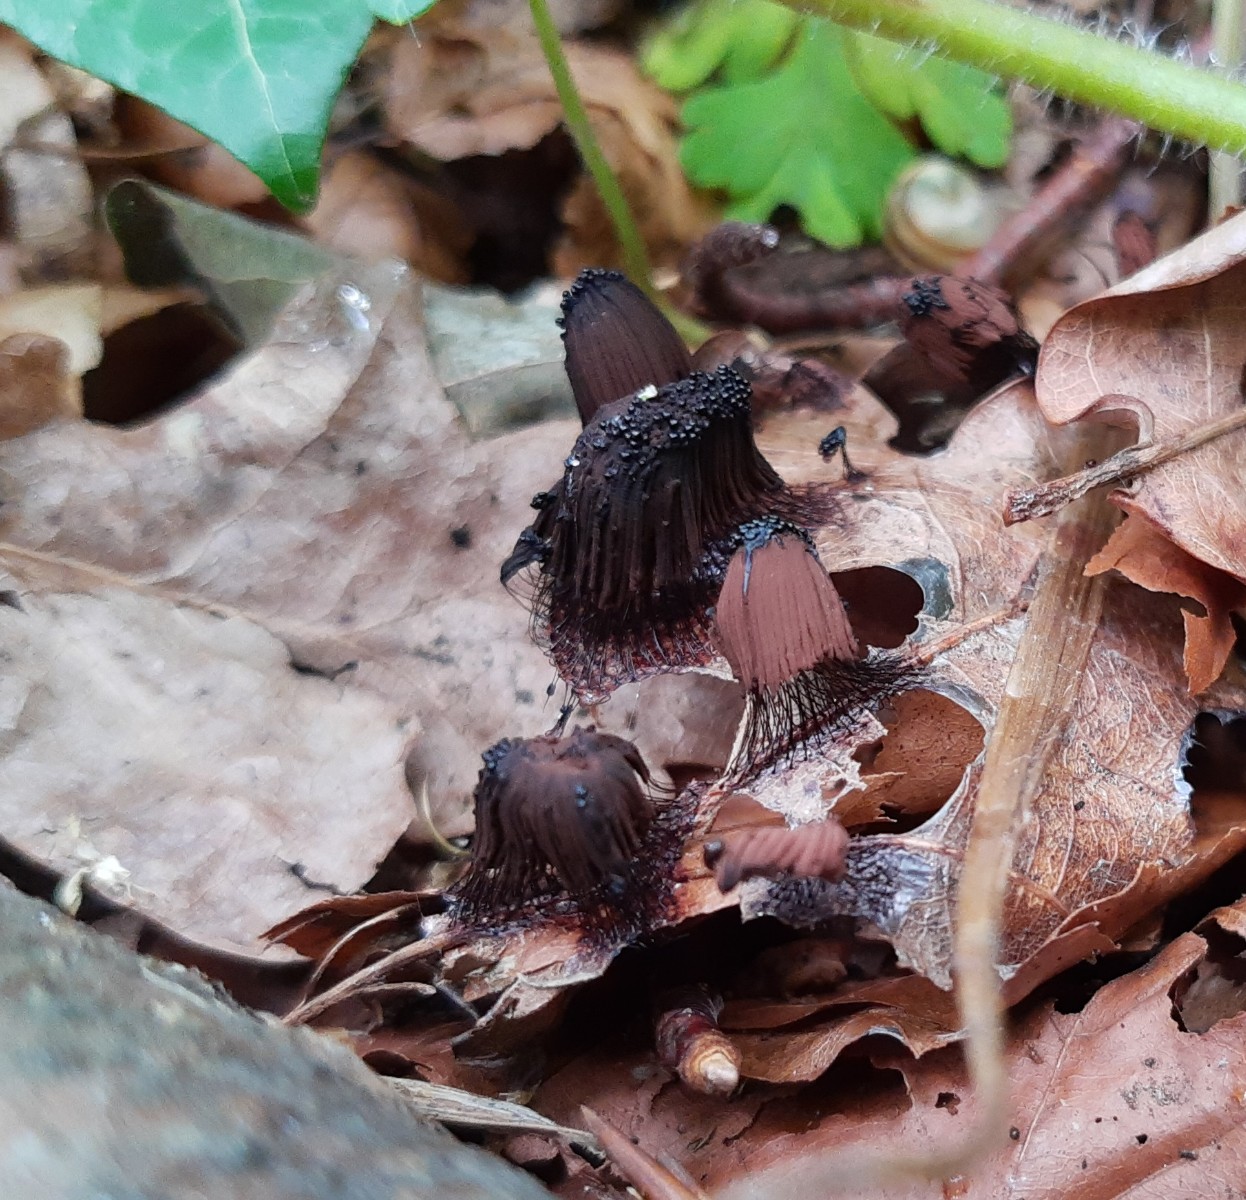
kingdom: Protozoa
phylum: Mycetozoa
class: Myxomycetes
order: Stemonitidales
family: Stemonitidaceae
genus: Stemonitis
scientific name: Stemonitis fusca
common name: sodbrun støvkølle
